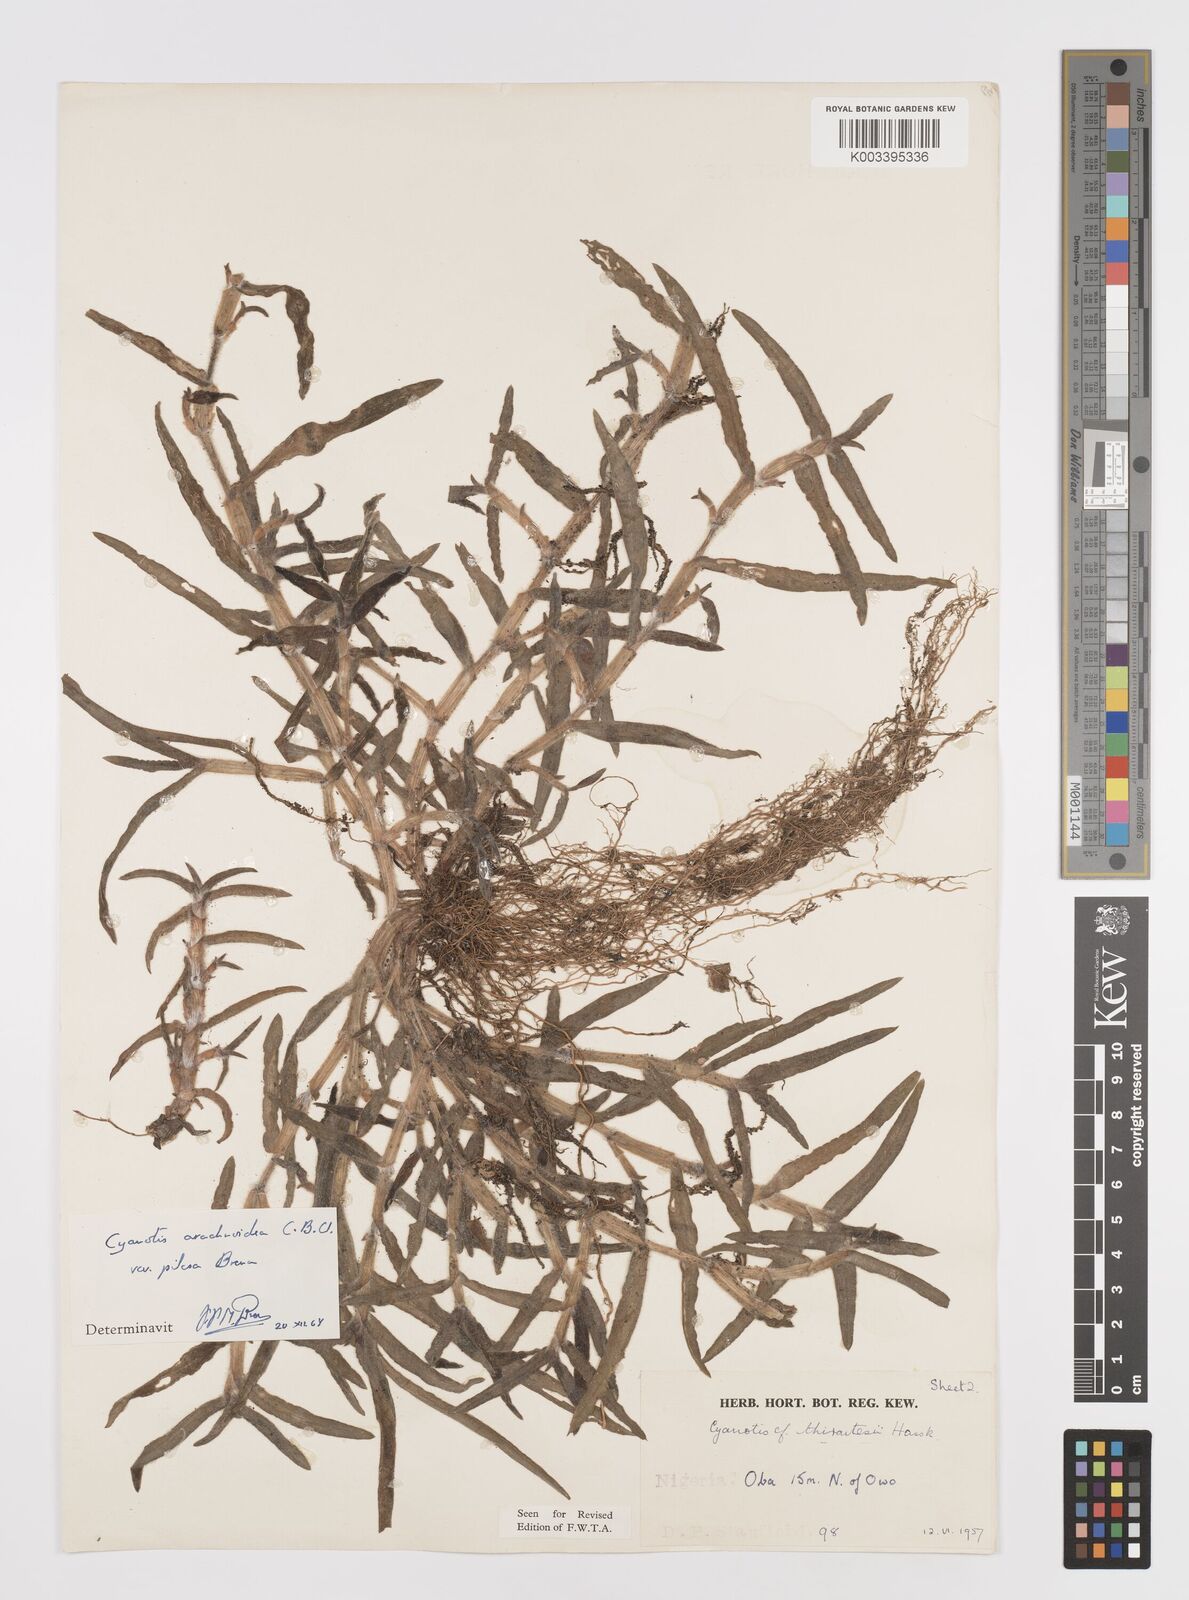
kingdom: Plantae
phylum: Tracheophyta
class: Liliopsida
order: Commelinales
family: Commelinaceae
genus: Cyanotis
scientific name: Cyanotis arachnoidea
